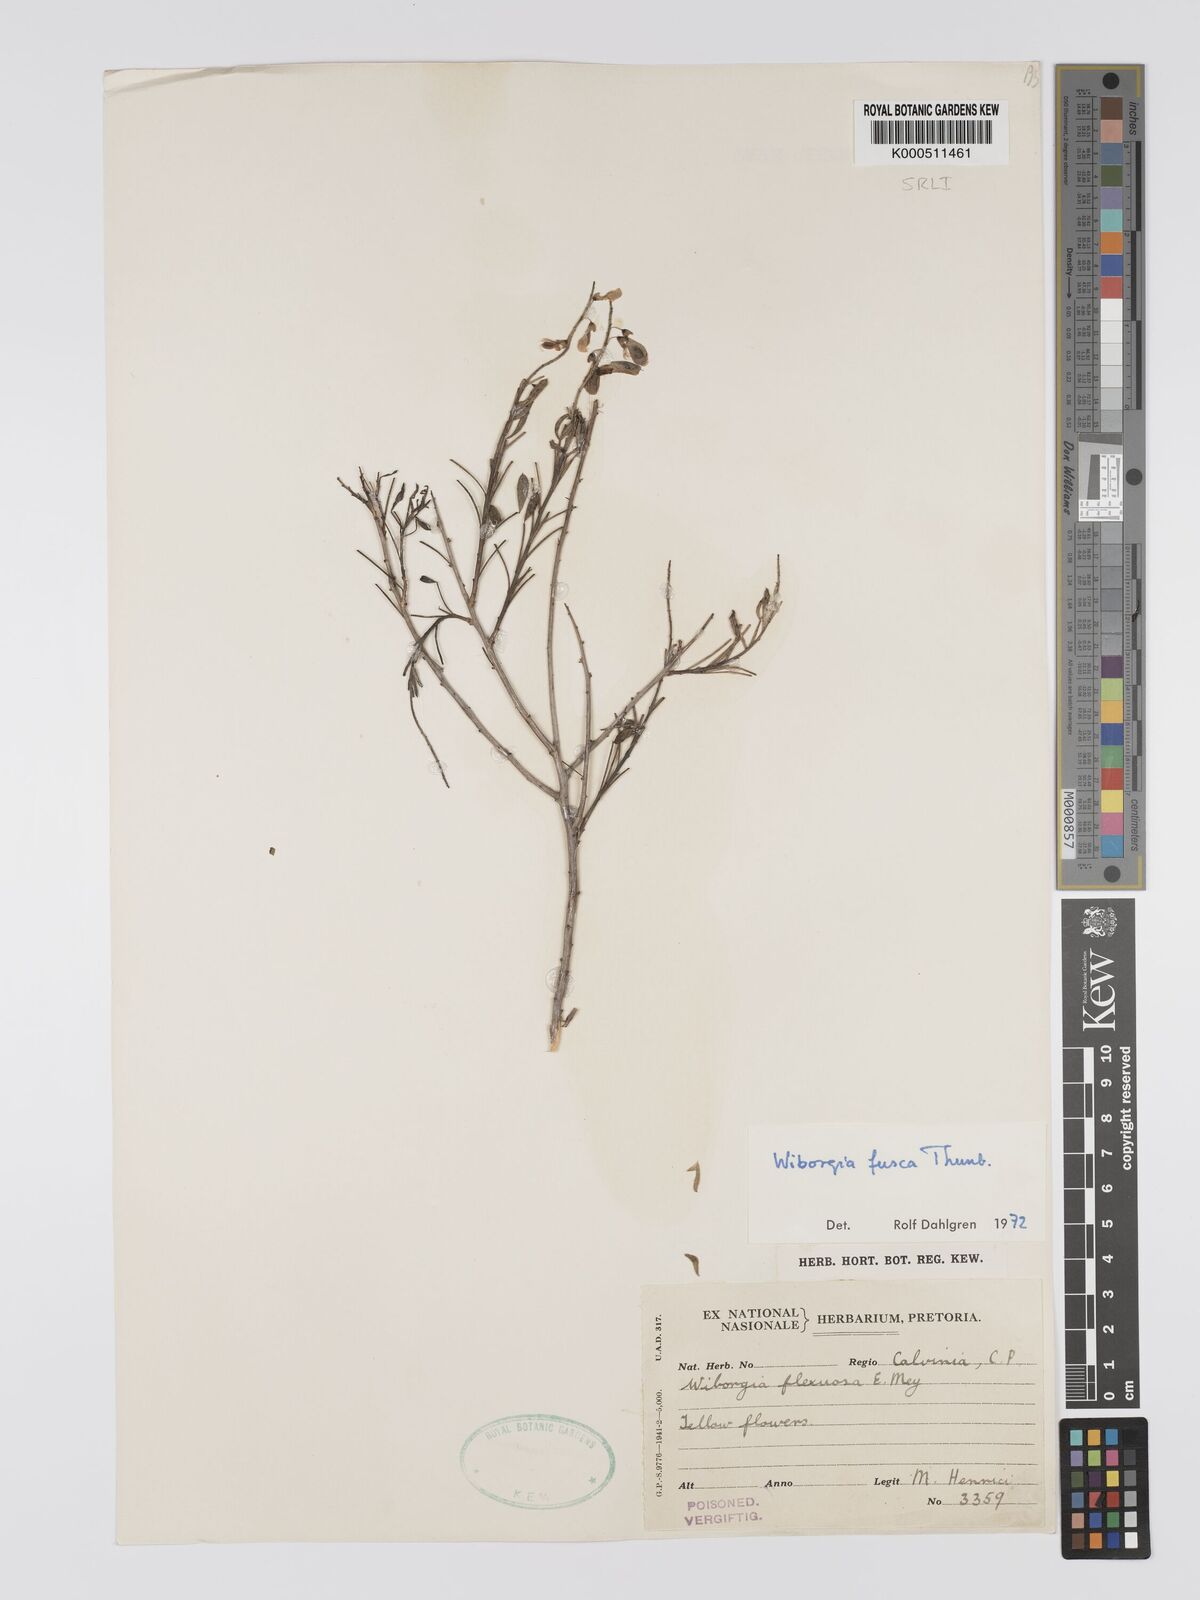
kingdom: Plantae
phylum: Tracheophyta
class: Magnoliopsida
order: Fabales
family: Fabaceae
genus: Wiborgia
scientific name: Wiborgia fusca
